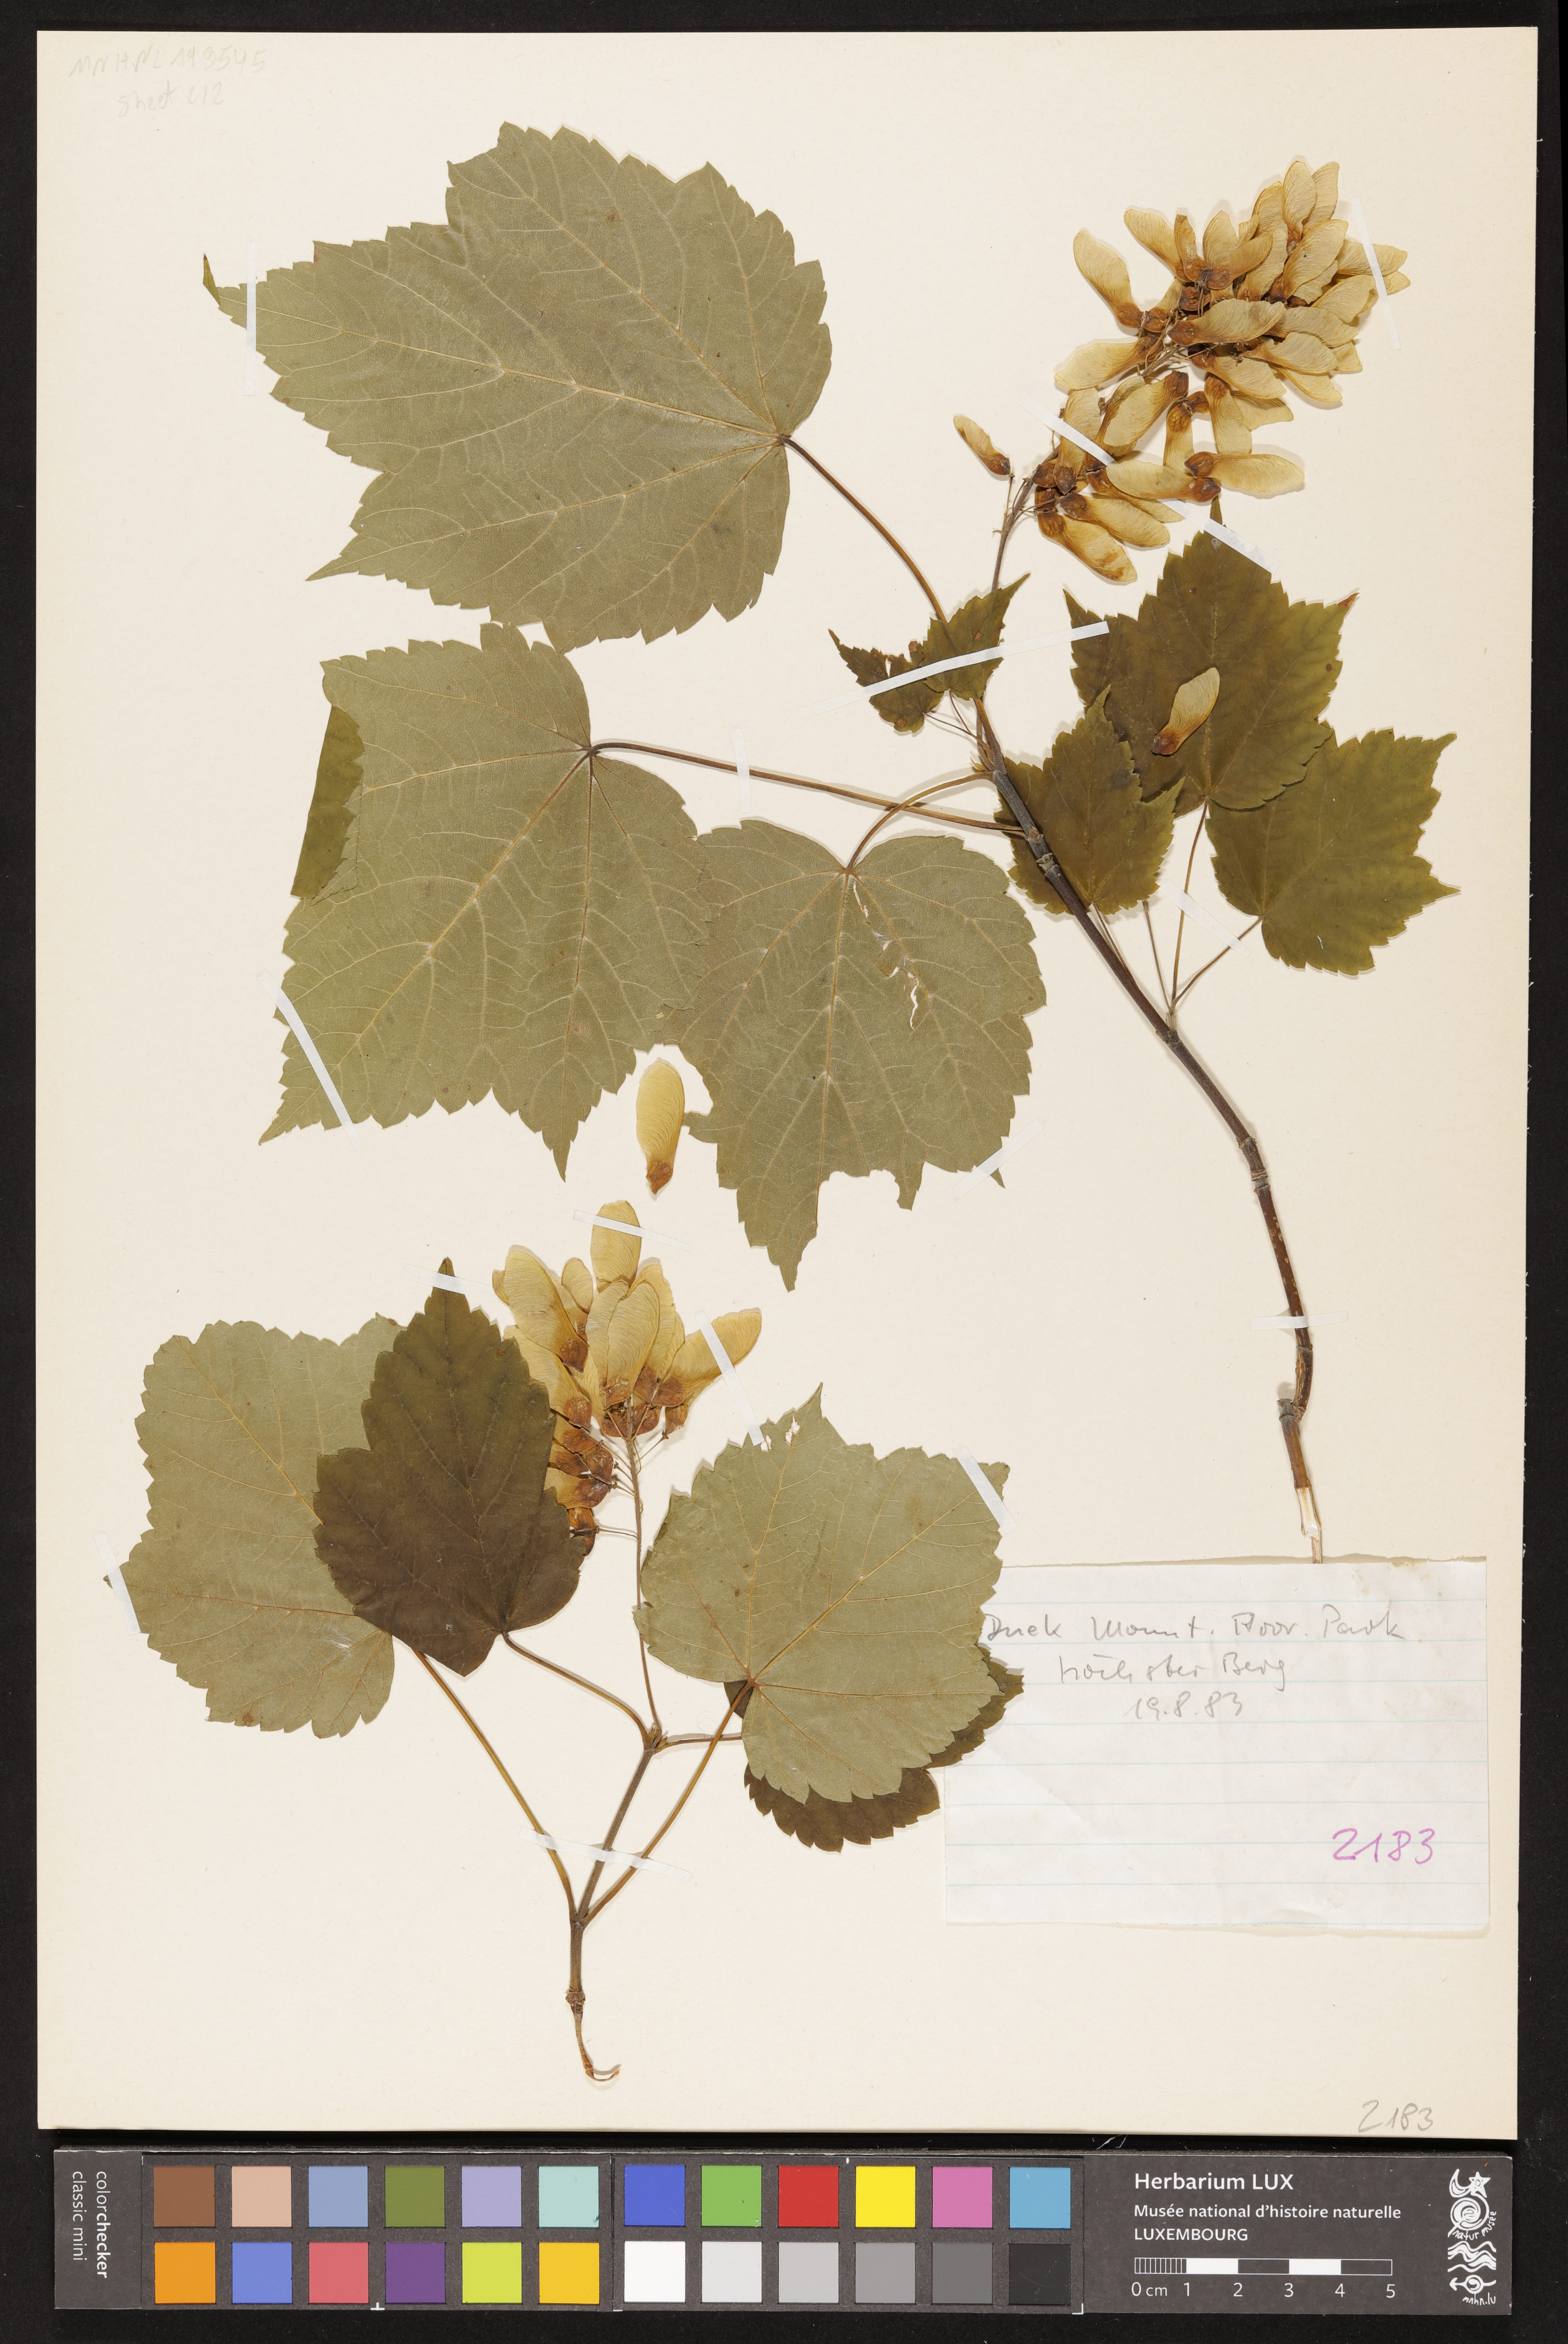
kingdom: Plantae
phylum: Tracheophyta
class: Magnoliopsida
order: Sapindales
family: Sapindaceae
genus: Acer
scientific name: Acer spicatum
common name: Mountain maple
